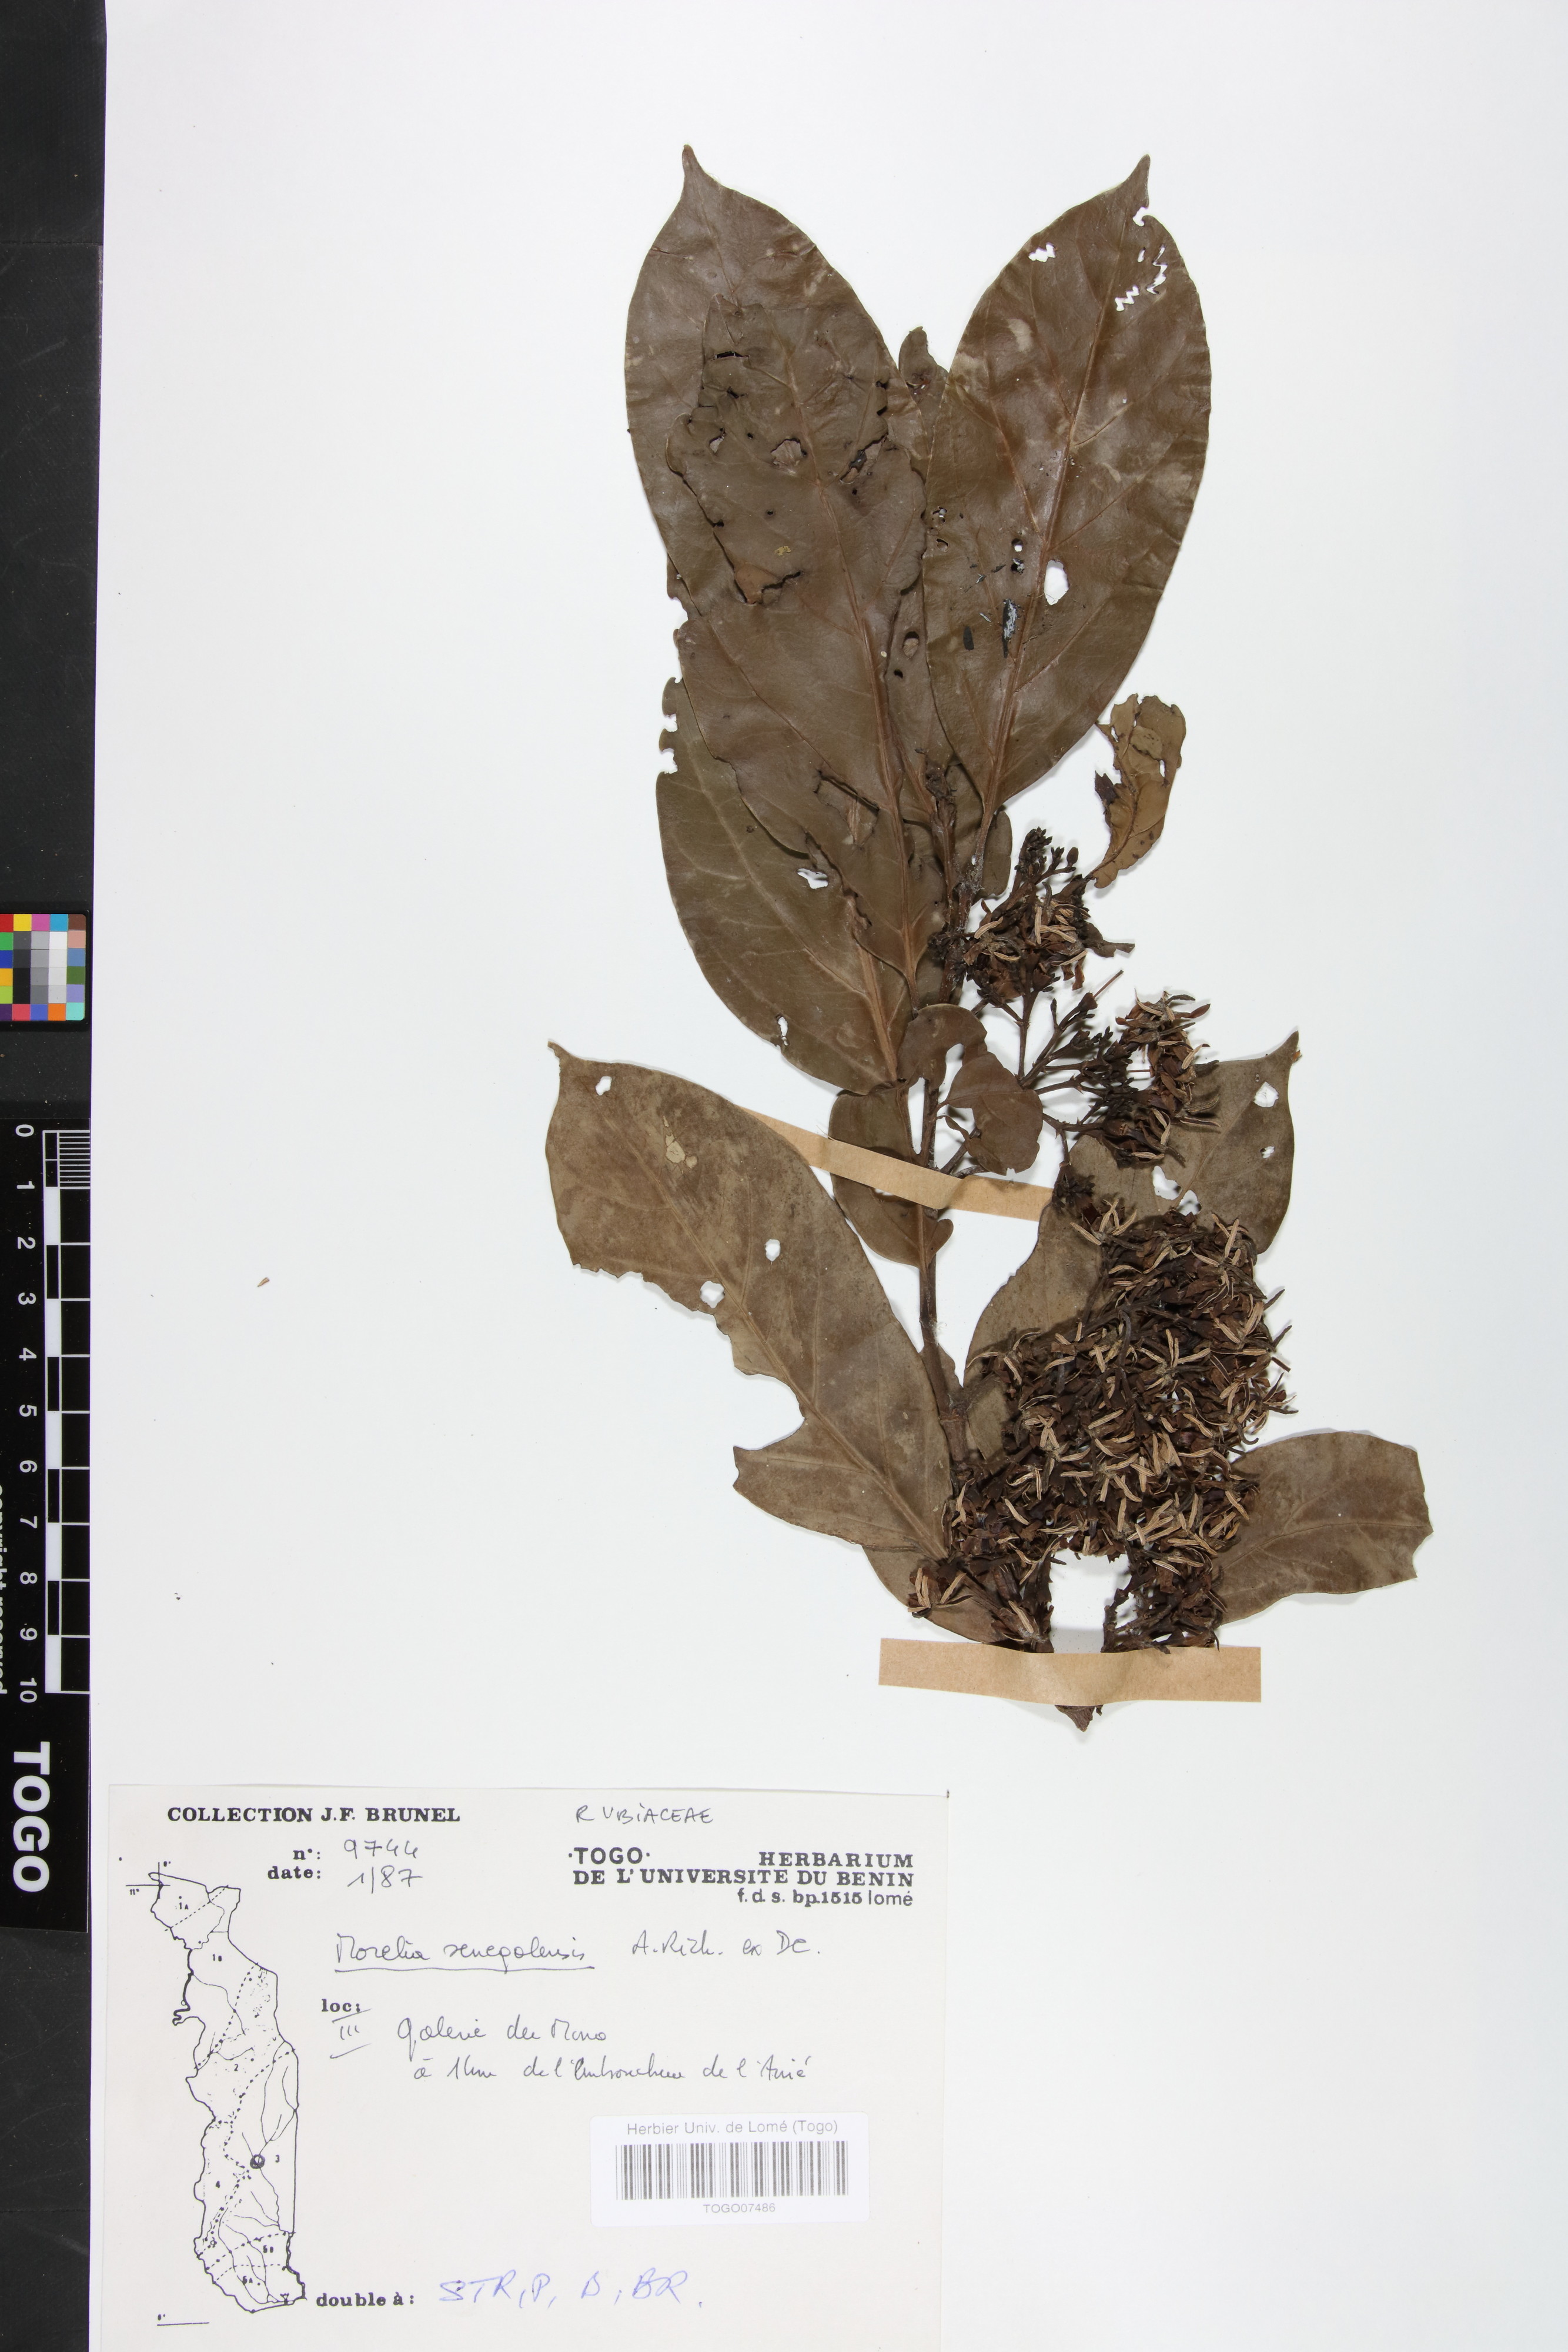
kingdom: Plantae
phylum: Tracheophyta
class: Magnoliopsida
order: Gentianales
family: Rubiaceae
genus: Morelia
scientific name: Morelia senegalensis
